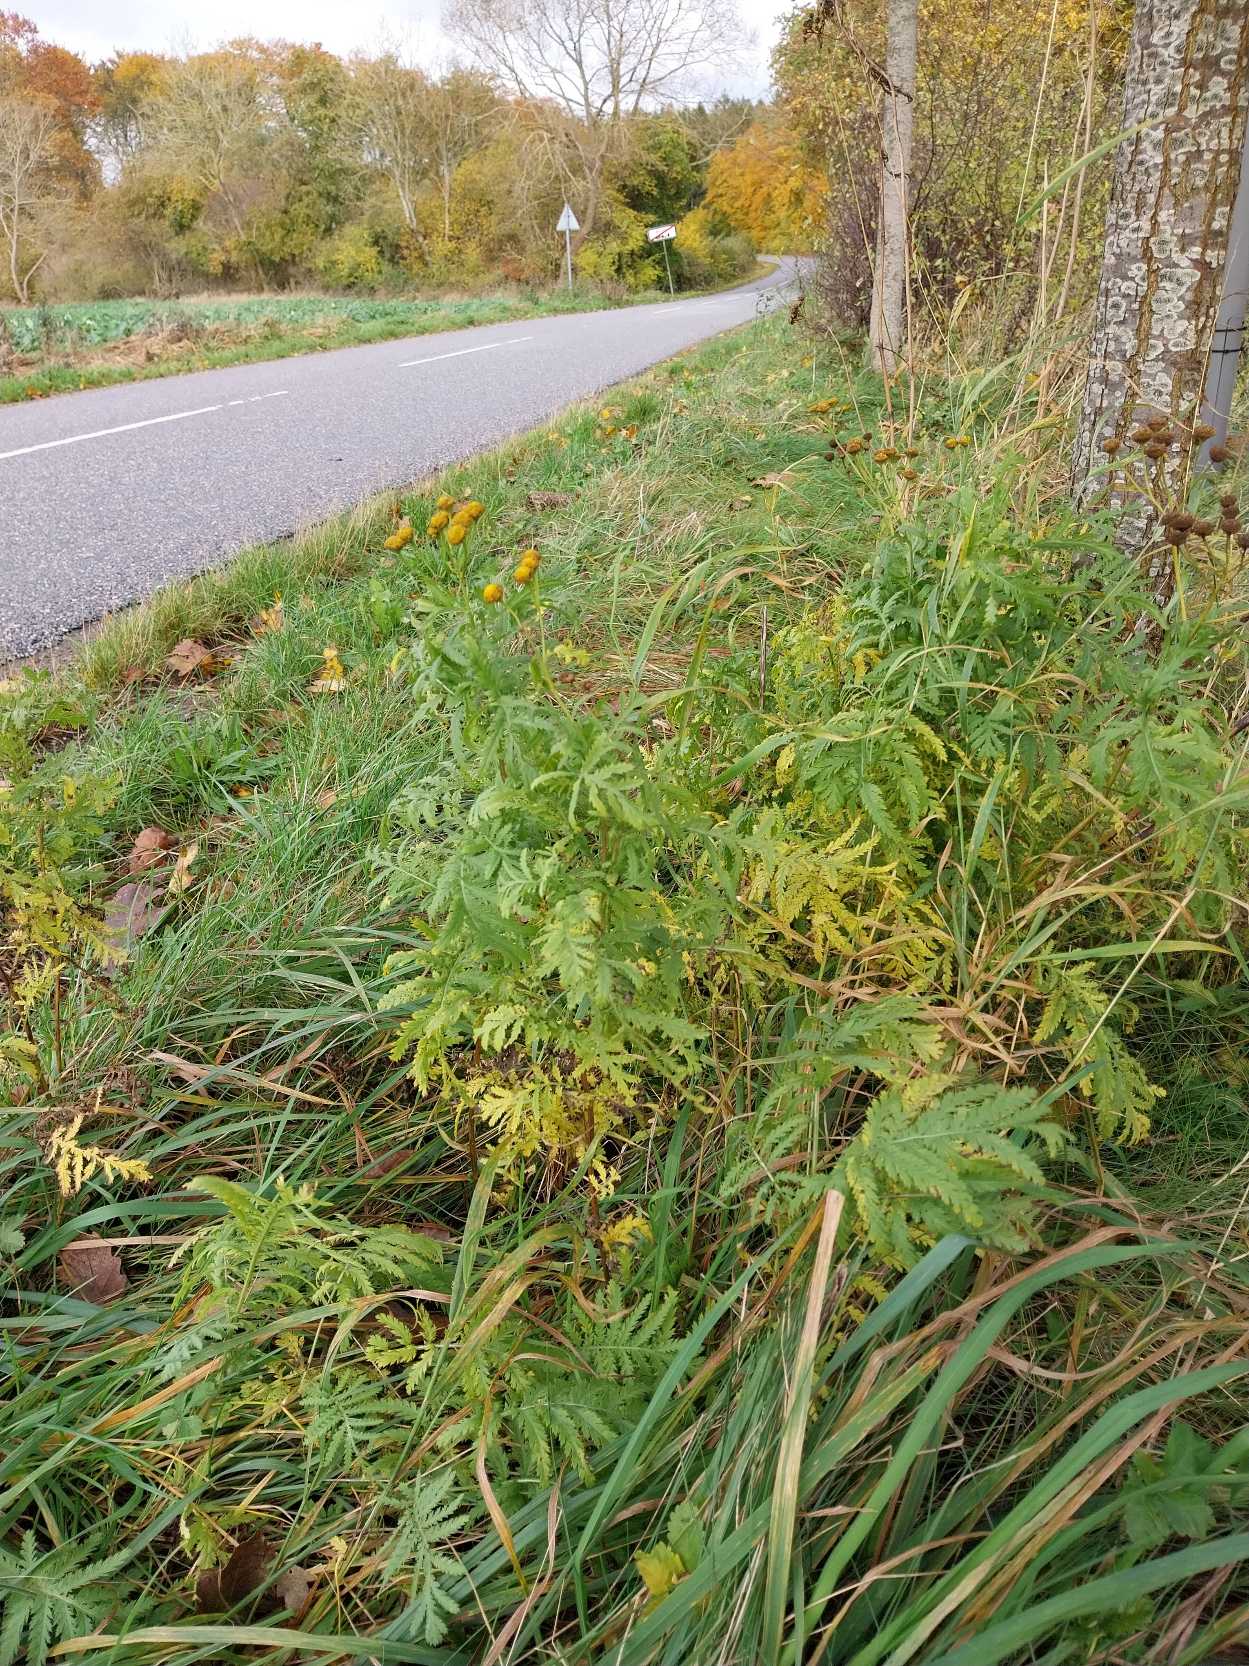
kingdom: Plantae
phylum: Tracheophyta
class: Magnoliopsida
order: Asterales
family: Asteraceae
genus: Tanacetum
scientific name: Tanacetum vulgare
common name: Rejnfan
